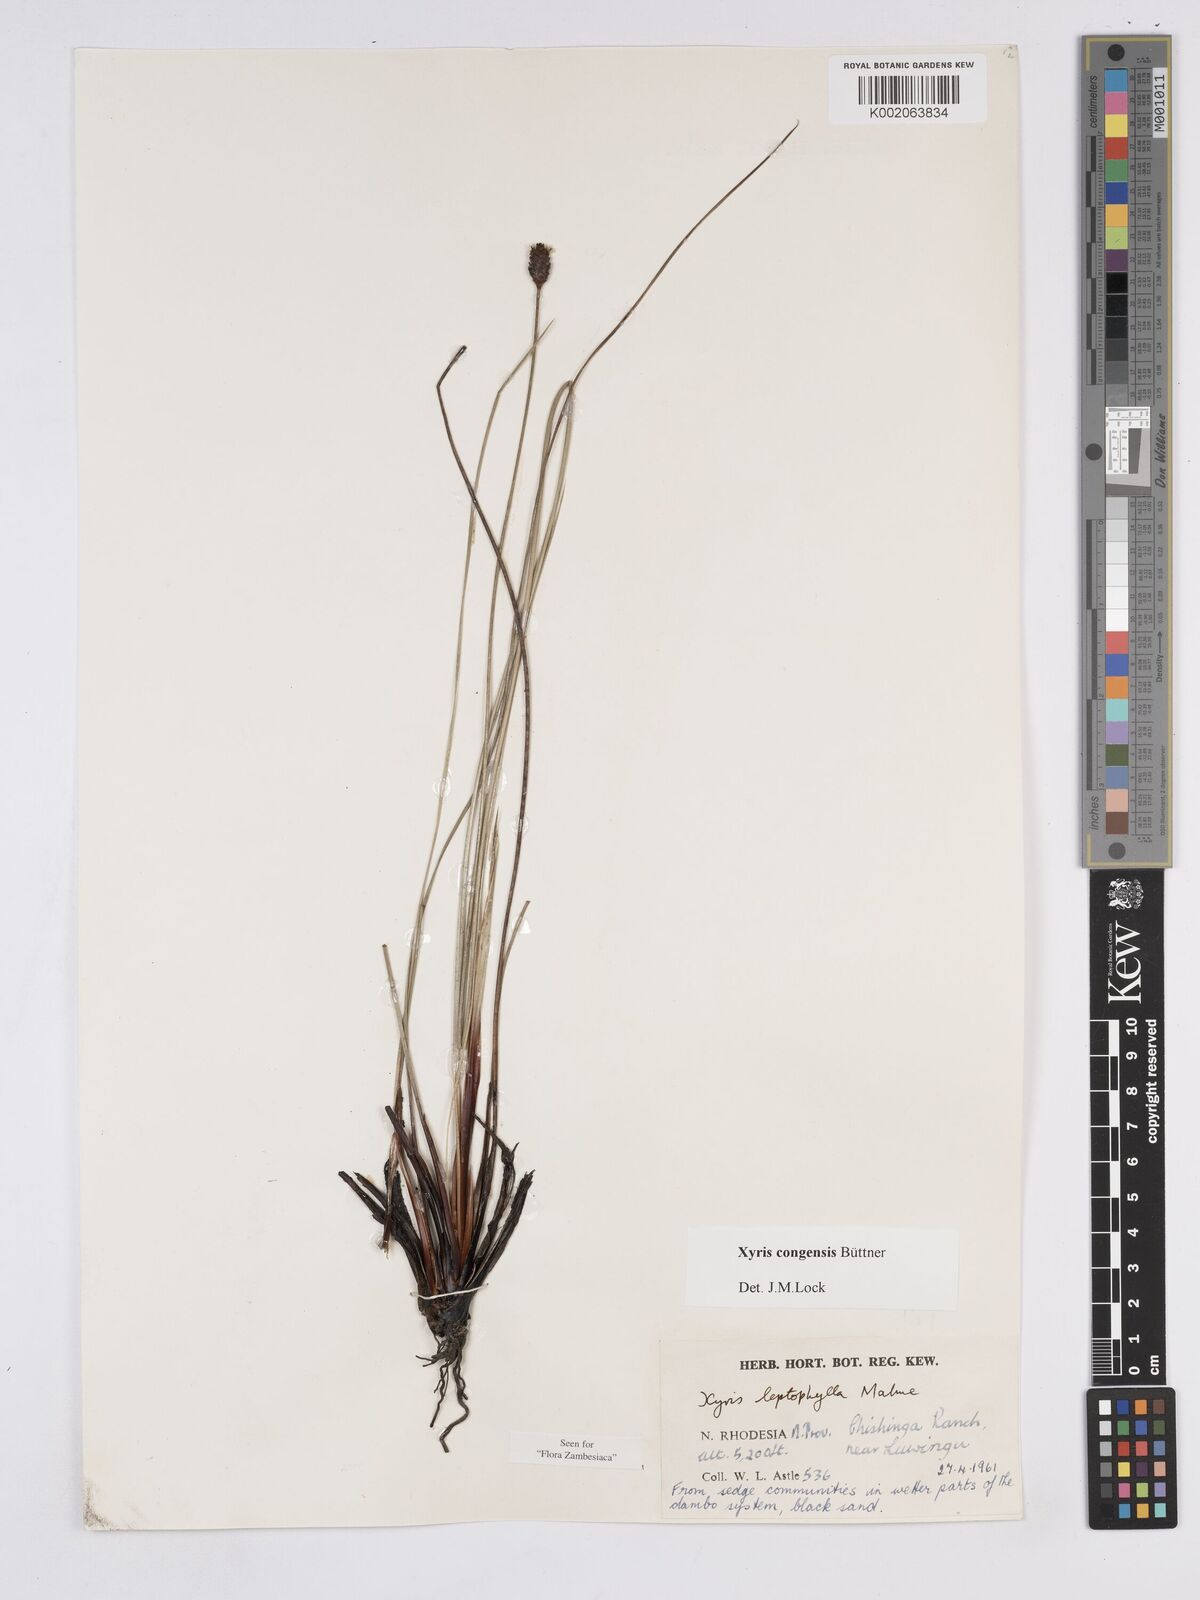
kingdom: Plantae
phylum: Tracheophyta
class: Liliopsida
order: Poales
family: Xyridaceae
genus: Xyris
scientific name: Xyris congensis
